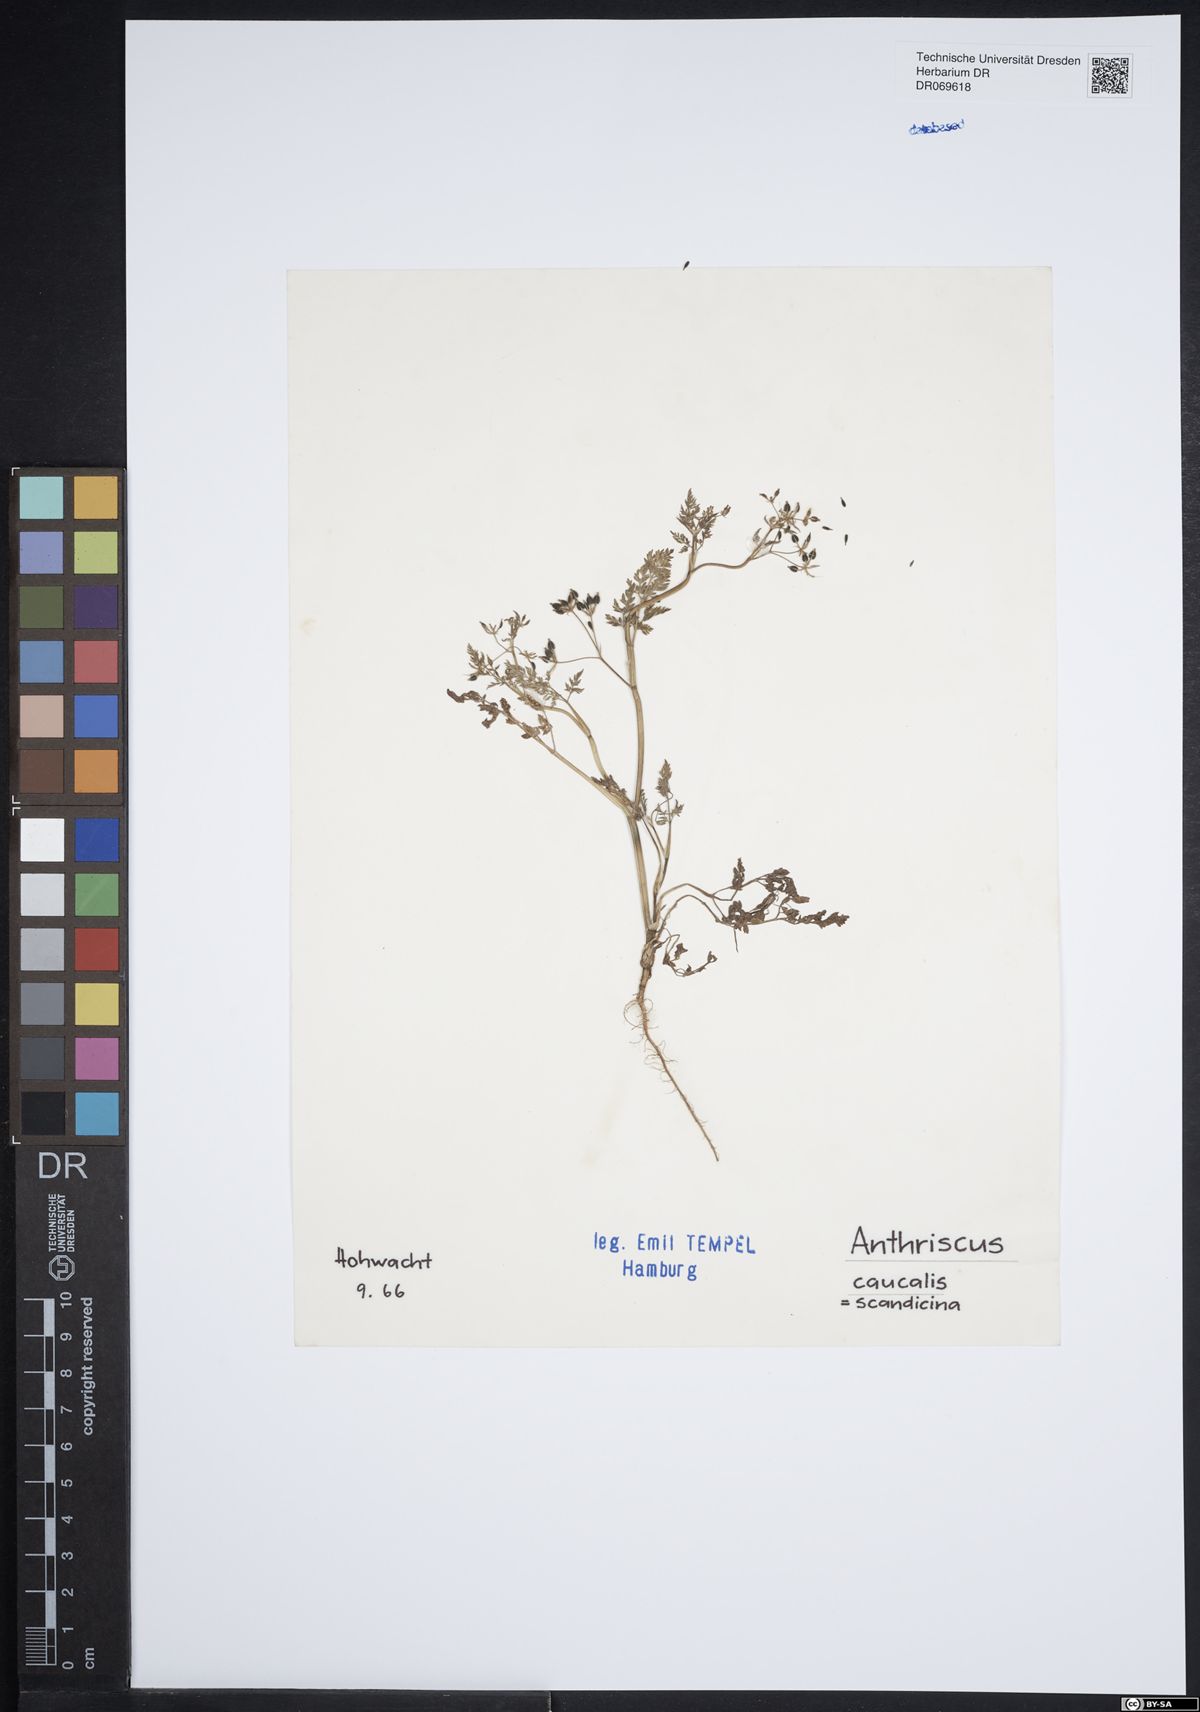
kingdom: Plantae
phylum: Tracheophyta
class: Magnoliopsida
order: Apiales
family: Apiaceae
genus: Anthriscus
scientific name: Anthriscus caucalis
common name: Bur chervil
